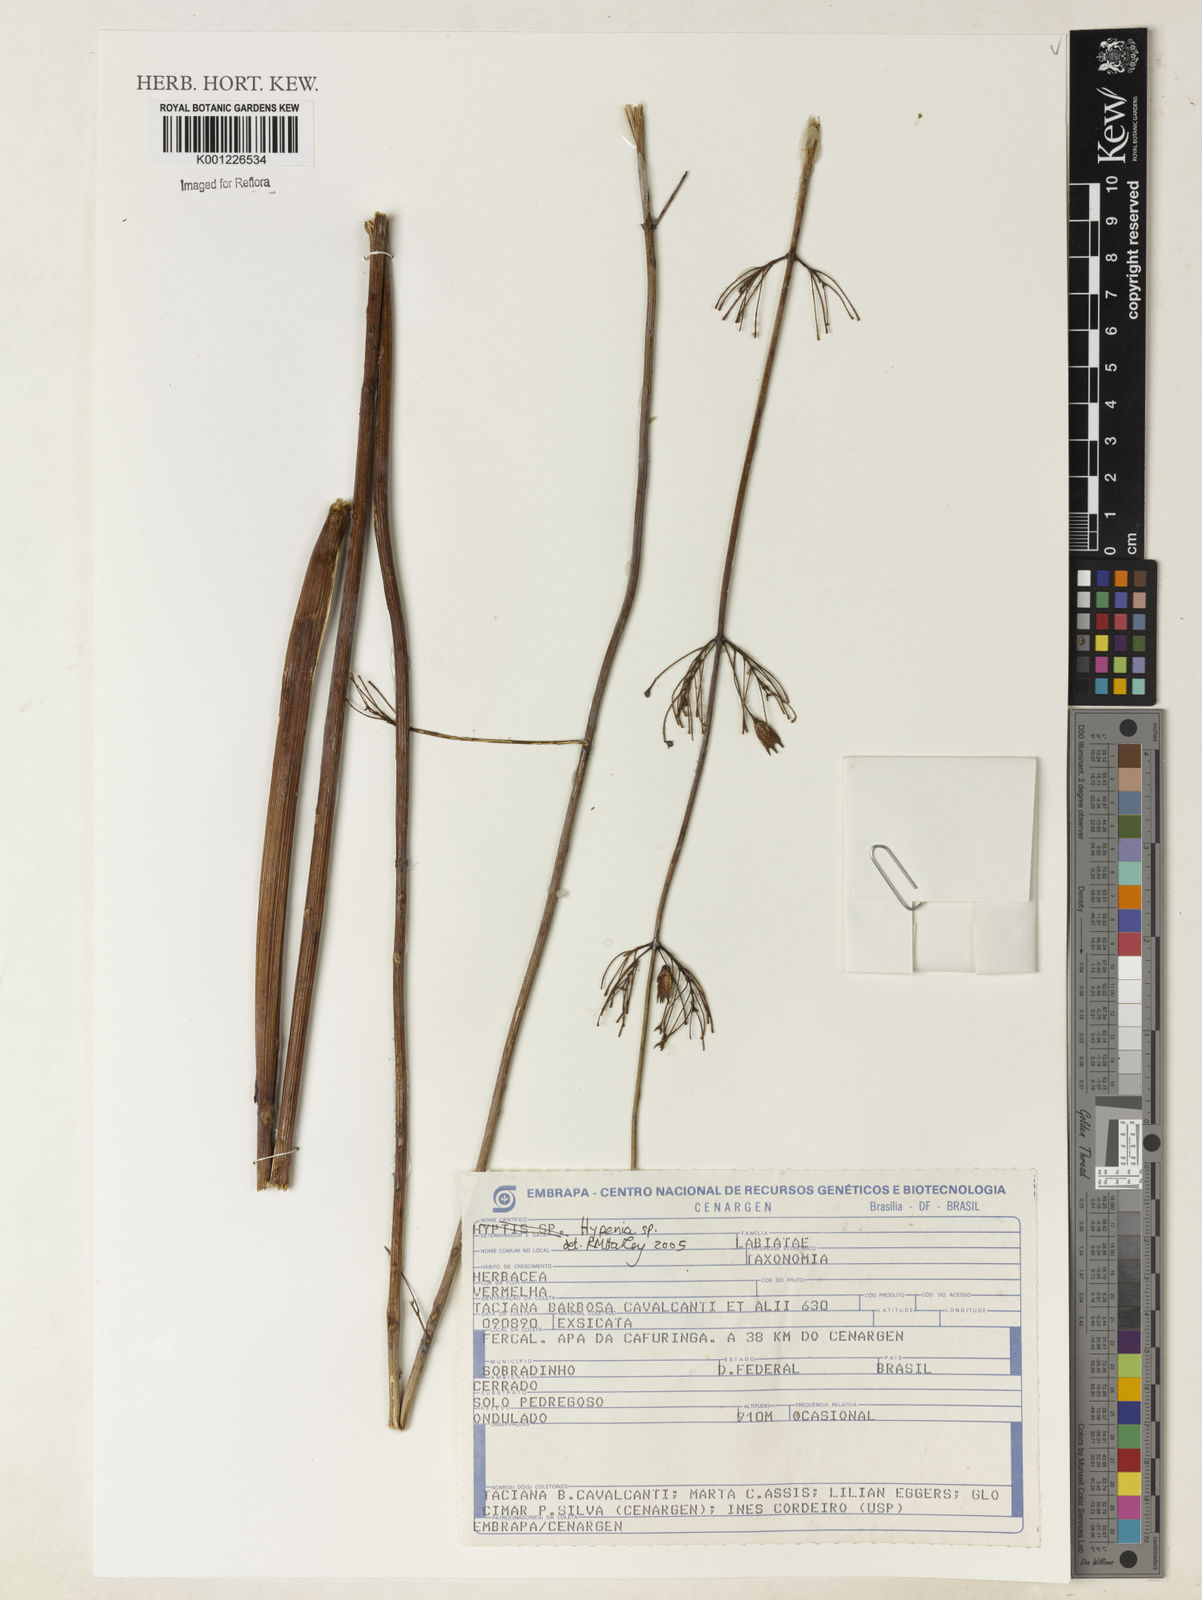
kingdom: Plantae
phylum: Tracheophyta
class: Magnoliopsida
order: Lamiales
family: Lamiaceae
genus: Hypenia
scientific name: Hypenia
